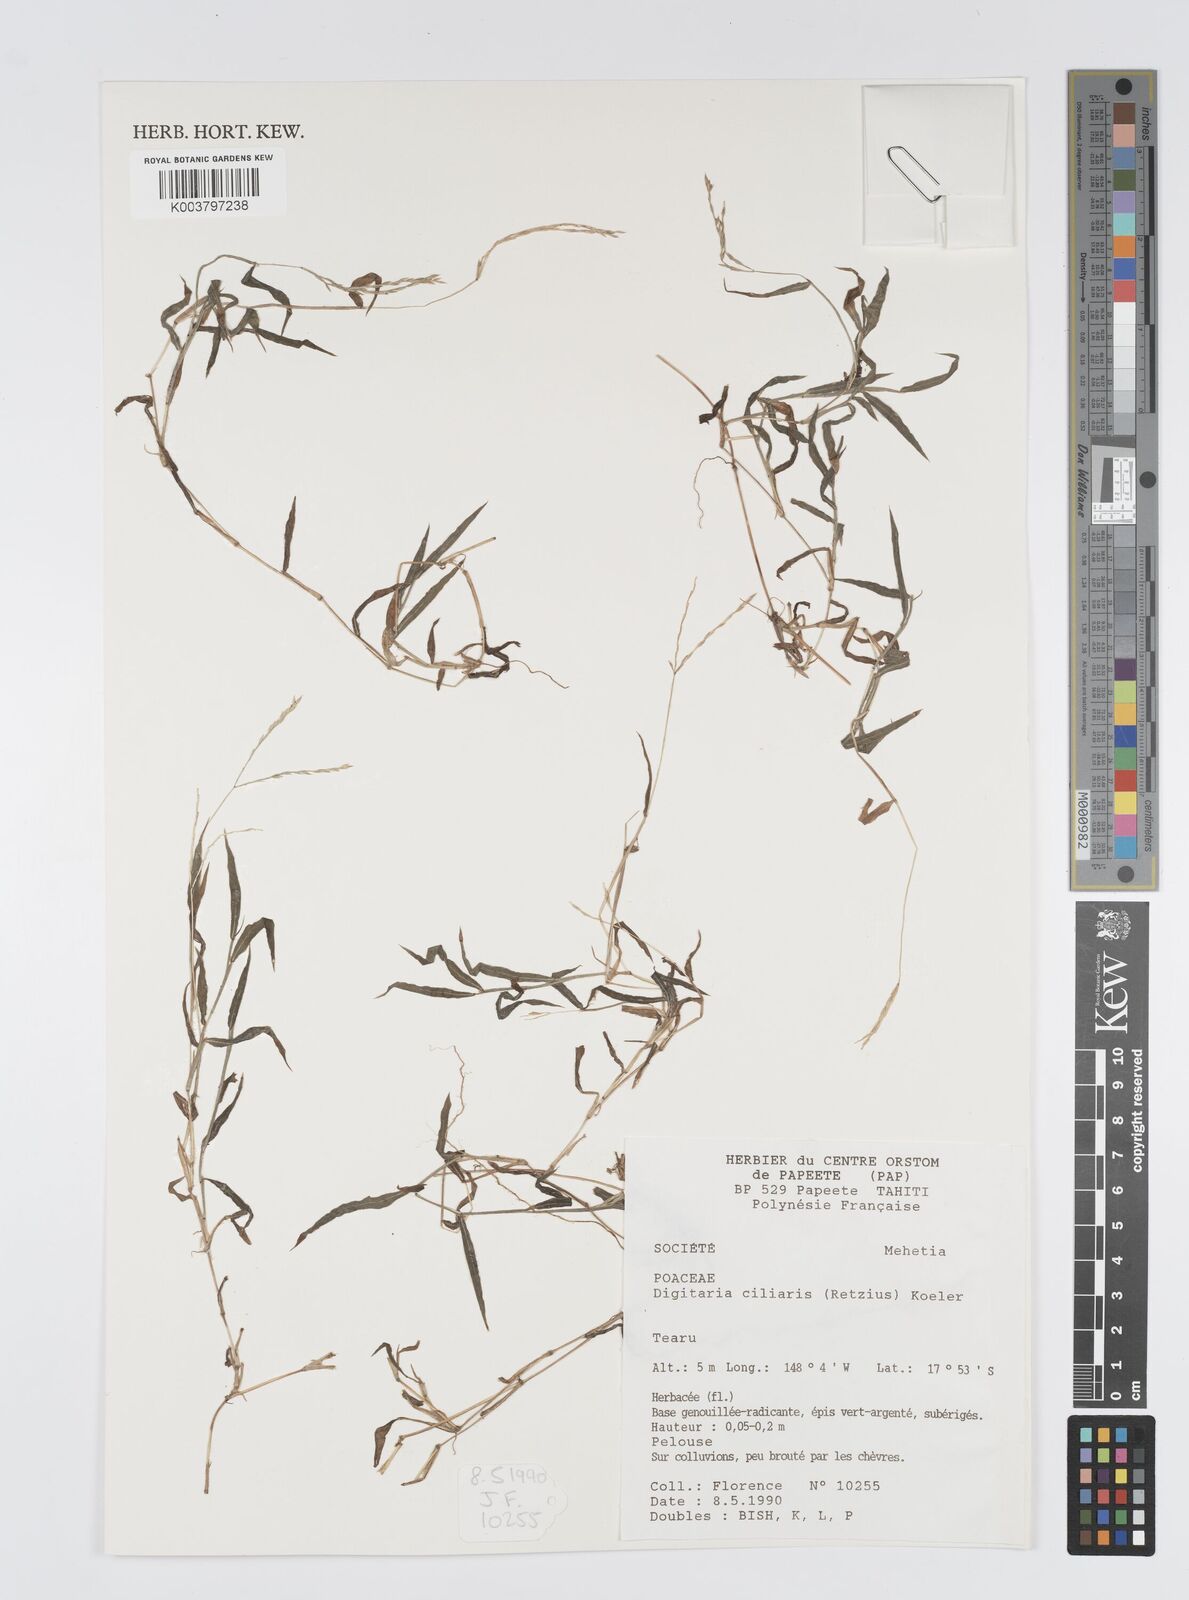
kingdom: Plantae
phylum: Tracheophyta
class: Liliopsida
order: Poales
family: Poaceae
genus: Digitaria
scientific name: Digitaria ciliaris
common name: Tropical finger-grass
